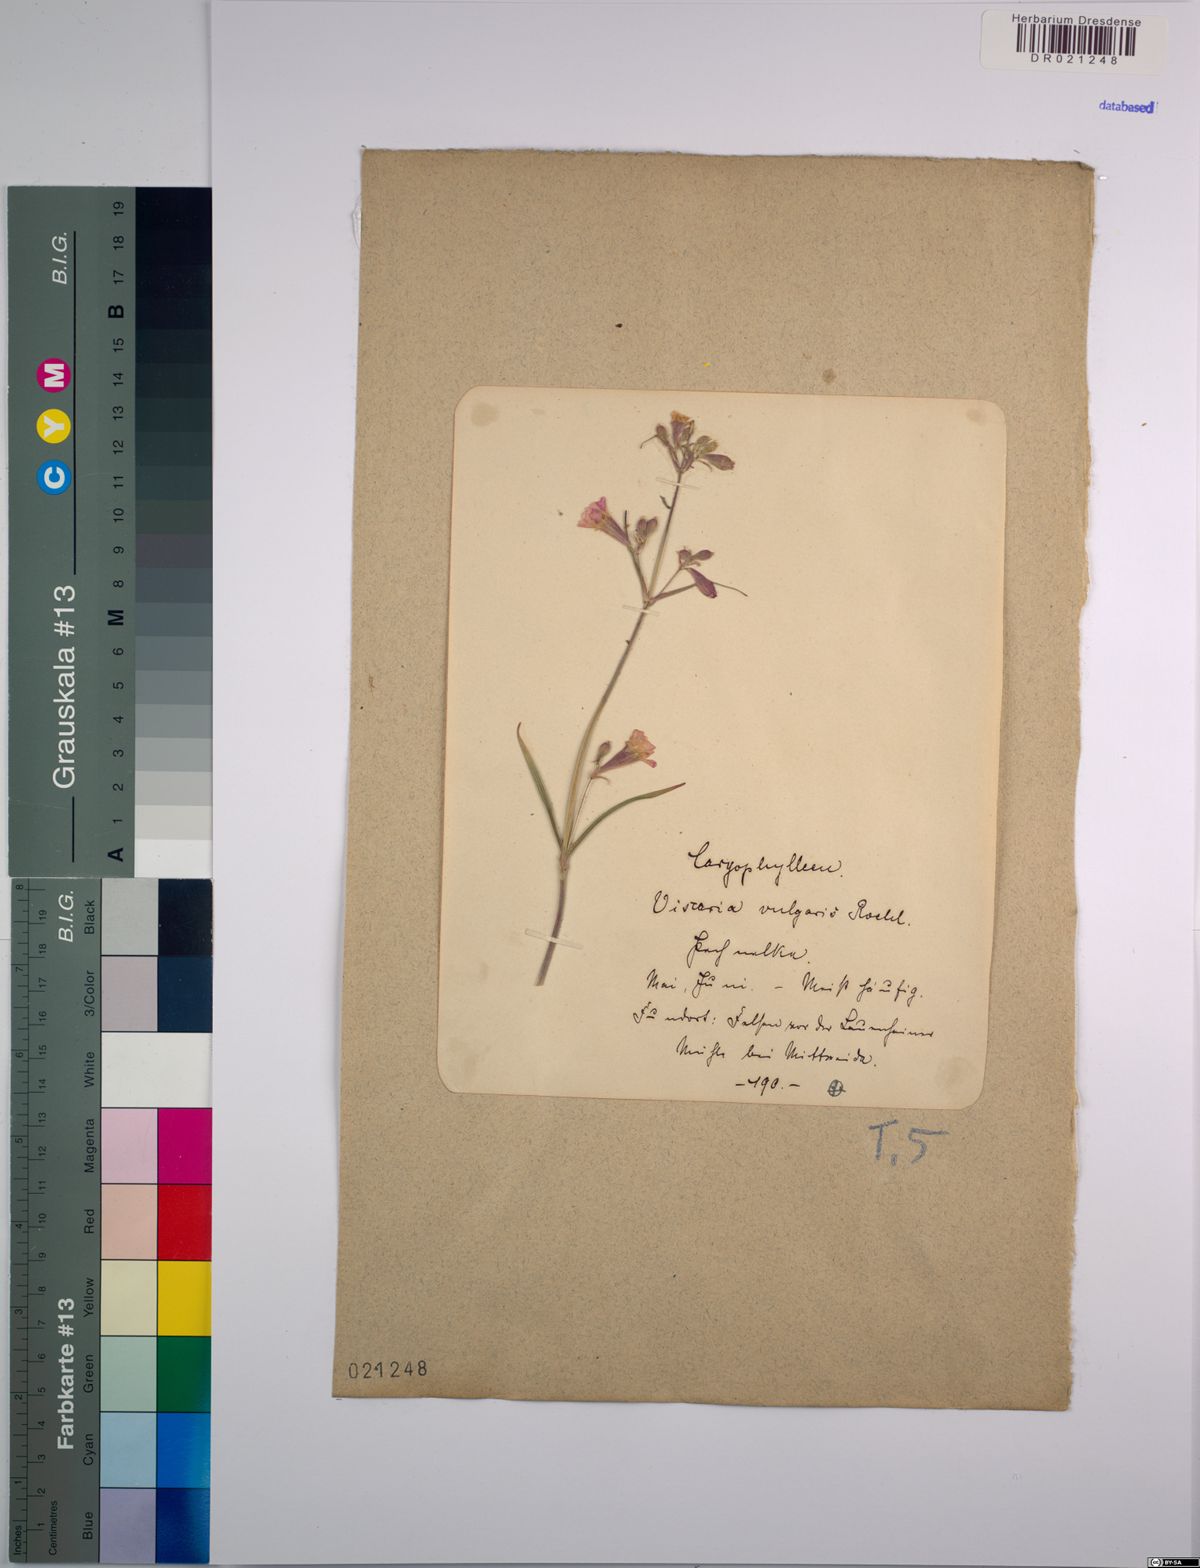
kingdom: Plantae
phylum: Tracheophyta
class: Magnoliopsida
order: Caryophyllales
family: Caryophyllaceae
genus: Viscaria
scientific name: Viscaria vulgaris
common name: Clammy campion
